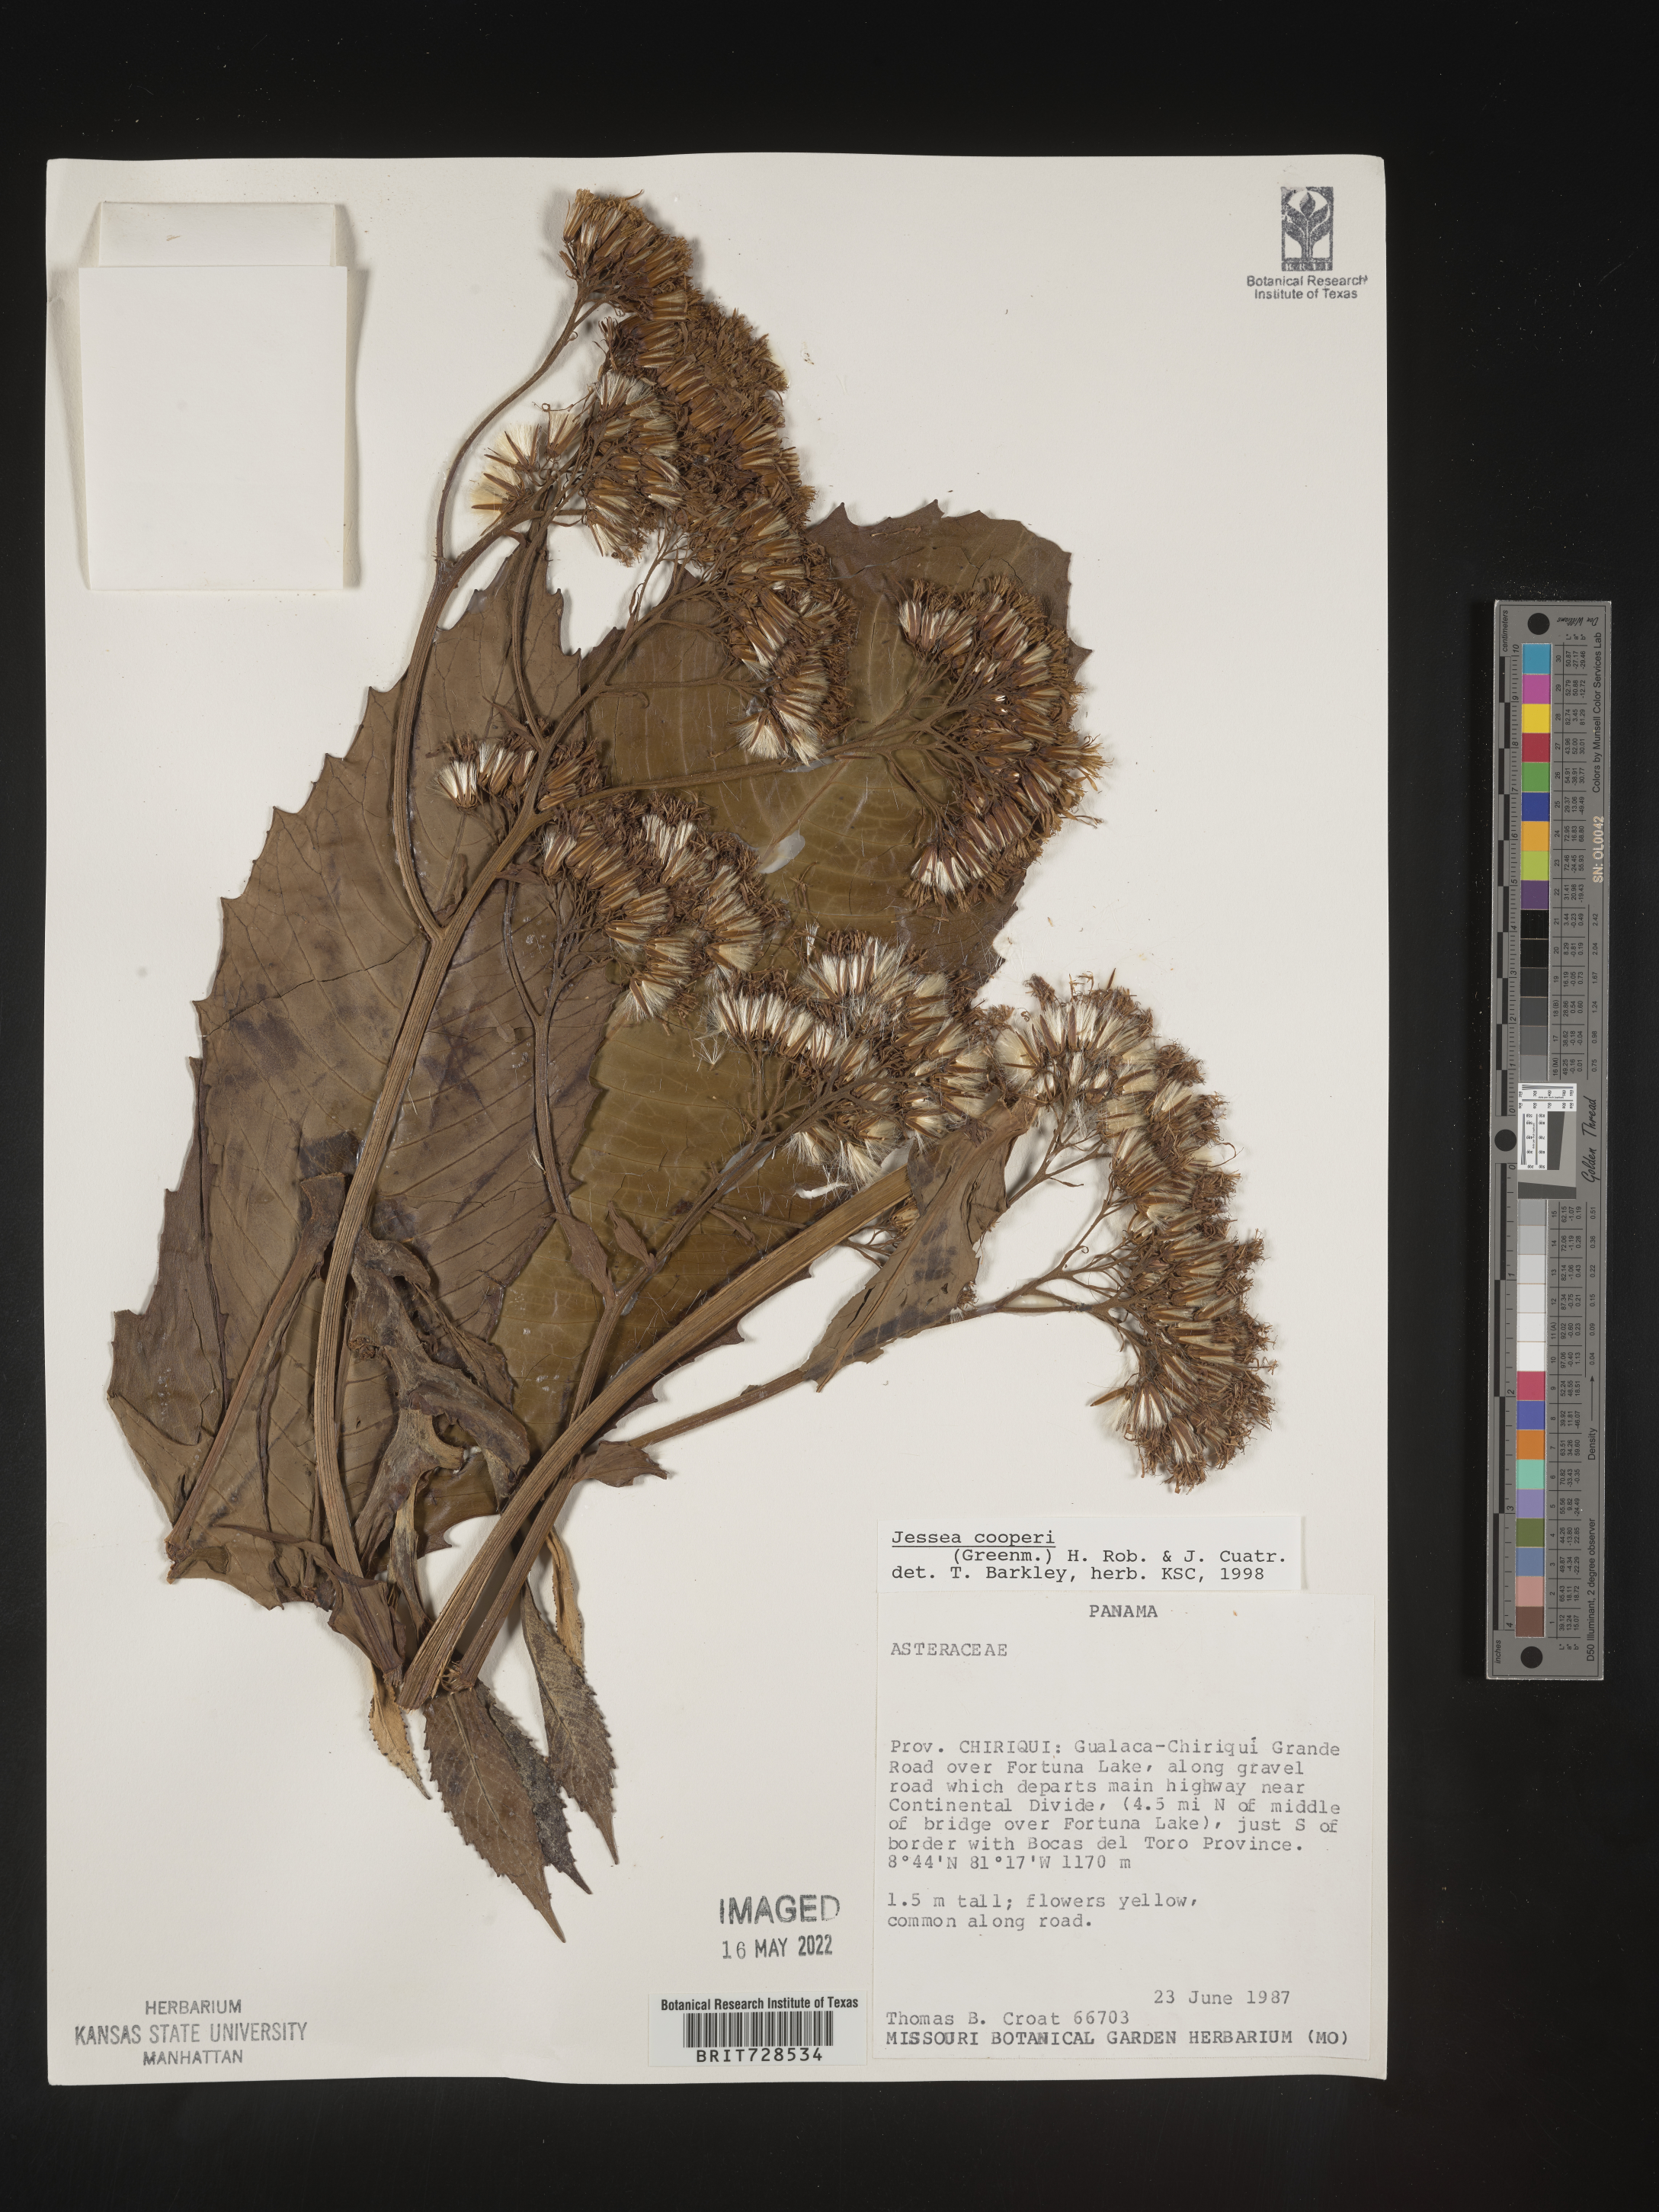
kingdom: Plantae
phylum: Tracheophyta
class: Magnoliopsida
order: Asterales
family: Asteraceae
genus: Jessea
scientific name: Jessea
